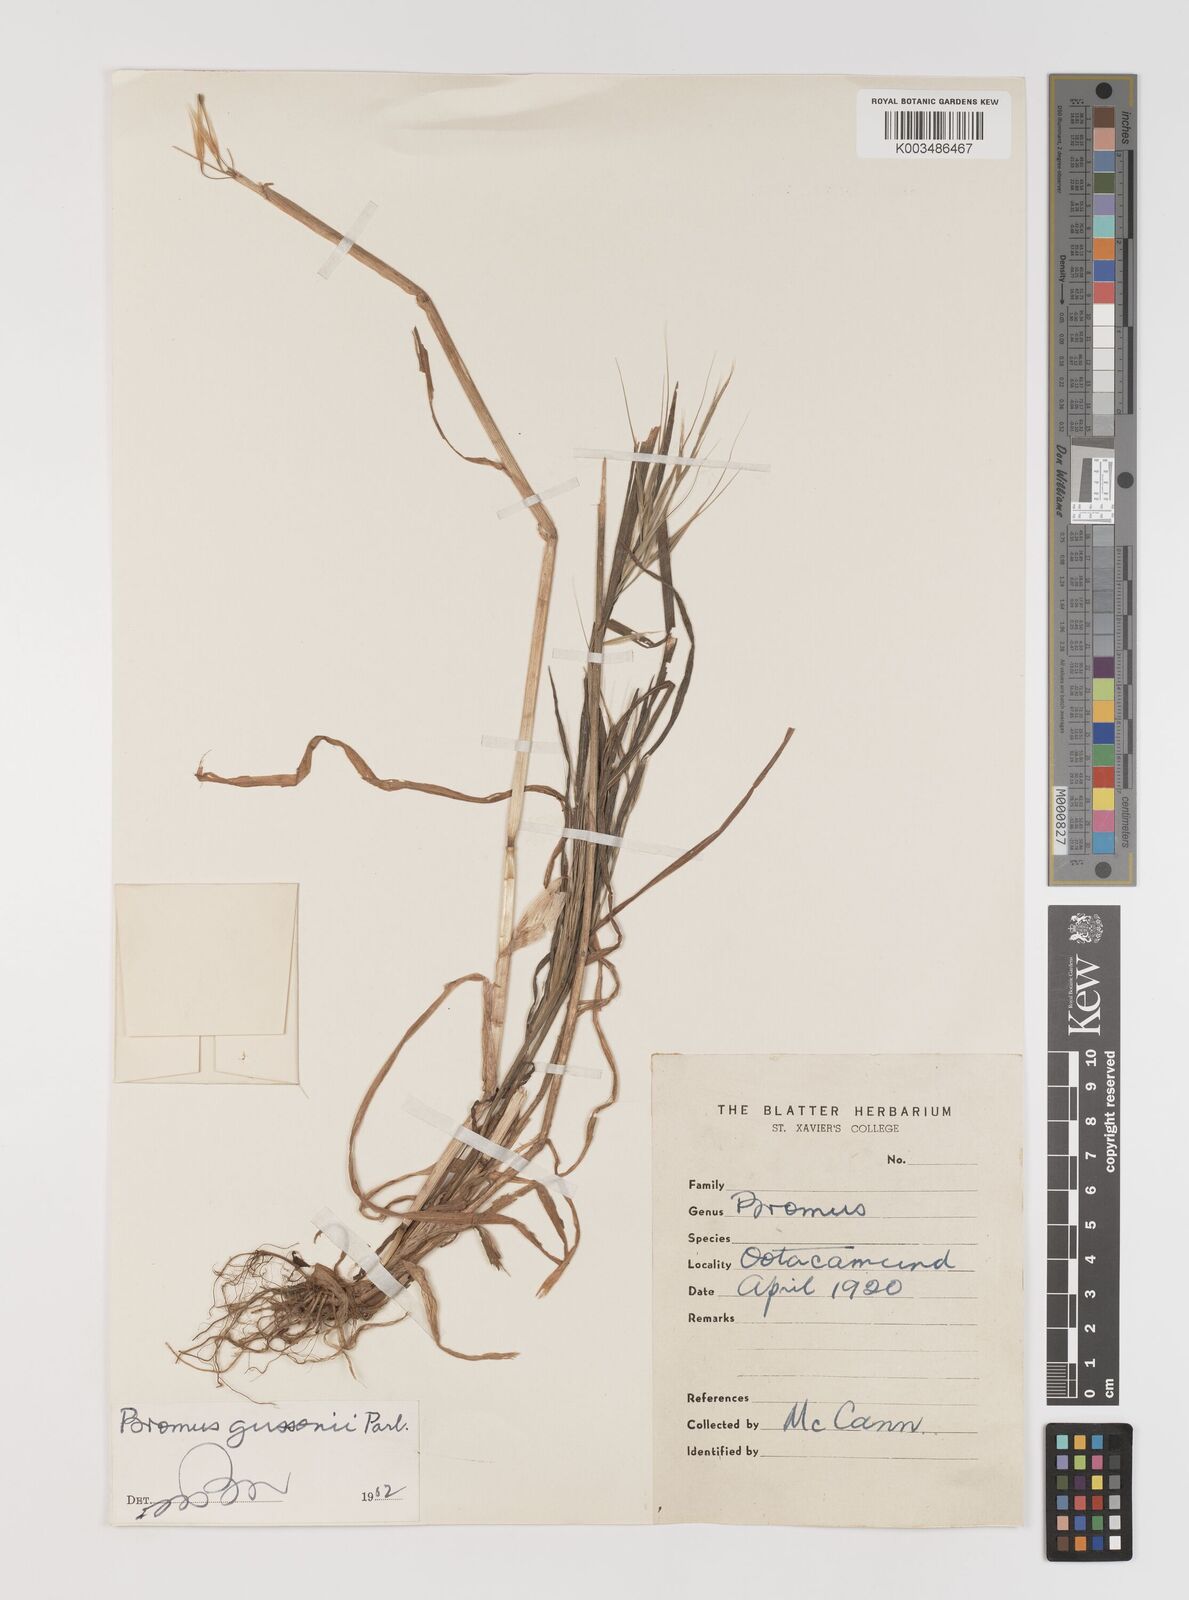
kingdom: Plantae
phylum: Tracheophyta
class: Liliopsida
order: Poales
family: Poaceae
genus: Bromus
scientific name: Bromus diandrus
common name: Ripgut brome
